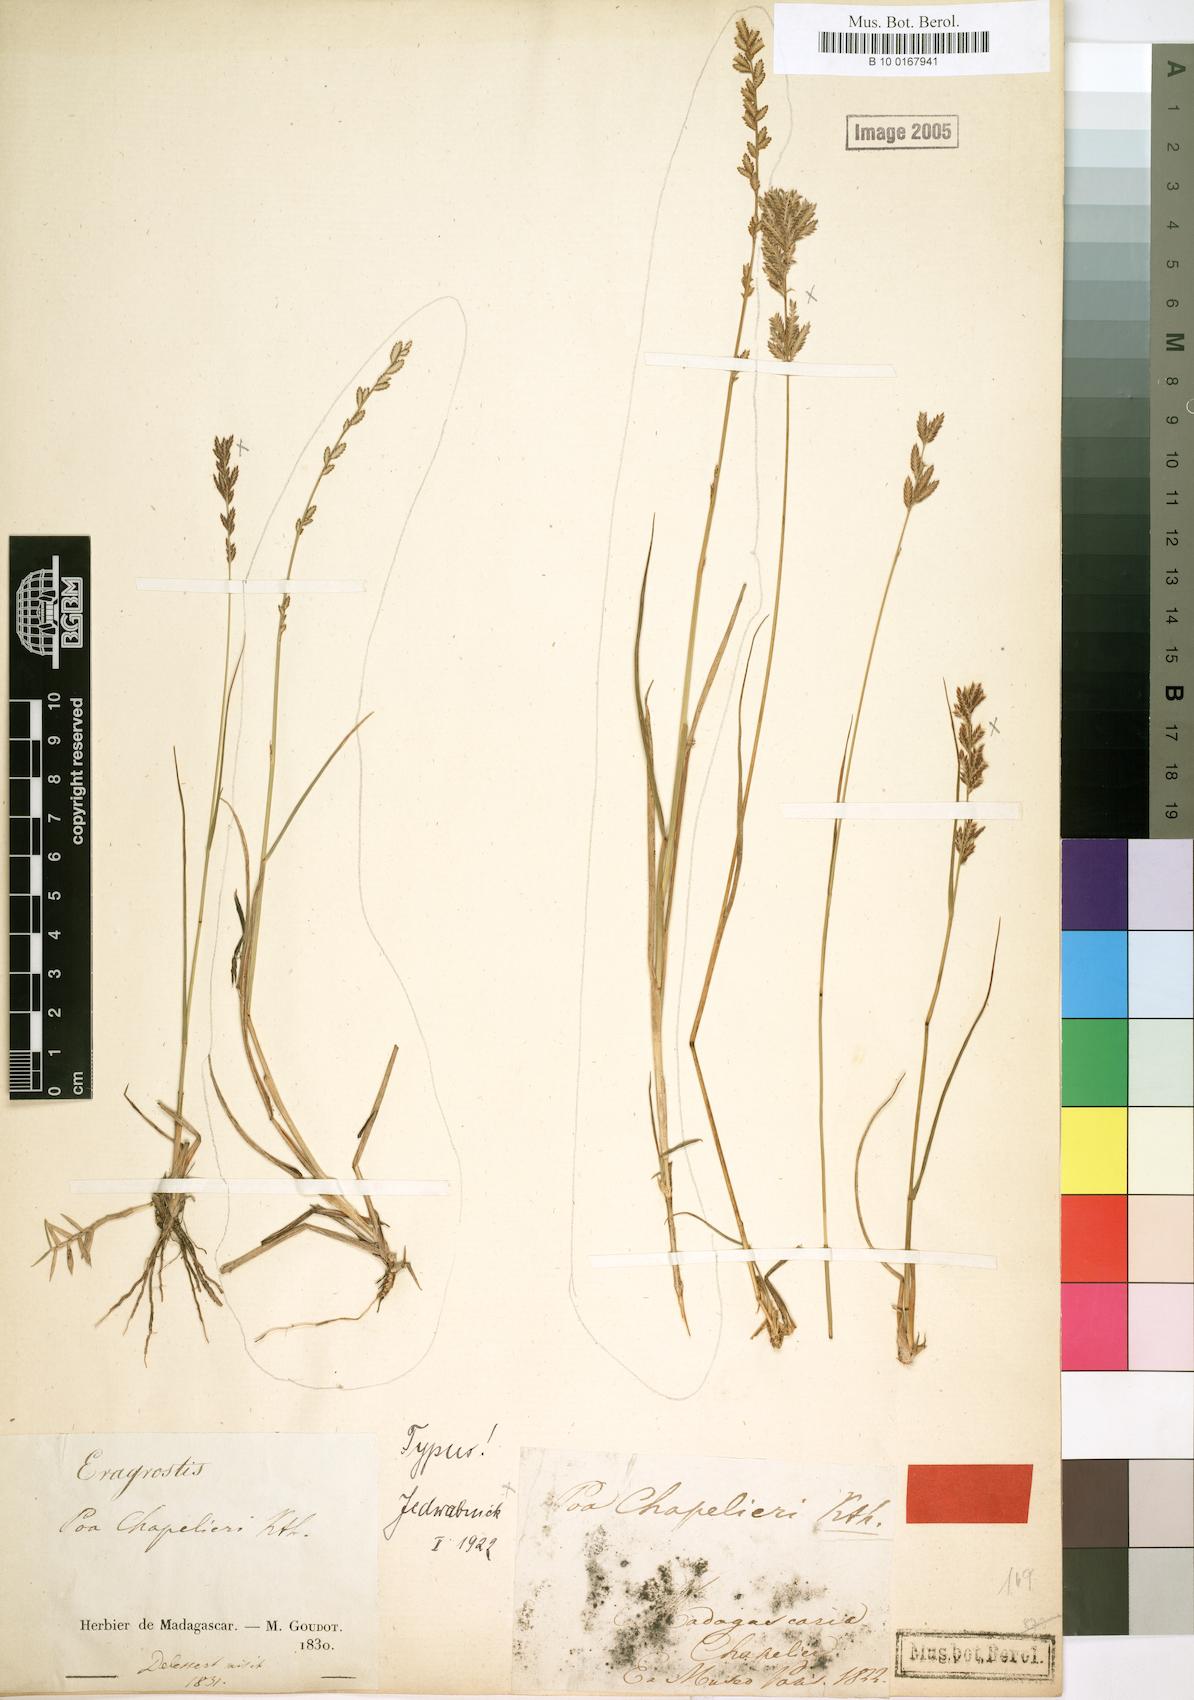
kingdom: Plantae
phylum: Tracheophyta
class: Liliopsida
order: Poales
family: Poaceae
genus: Eragrostis
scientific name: Eragrostis chapelieri
